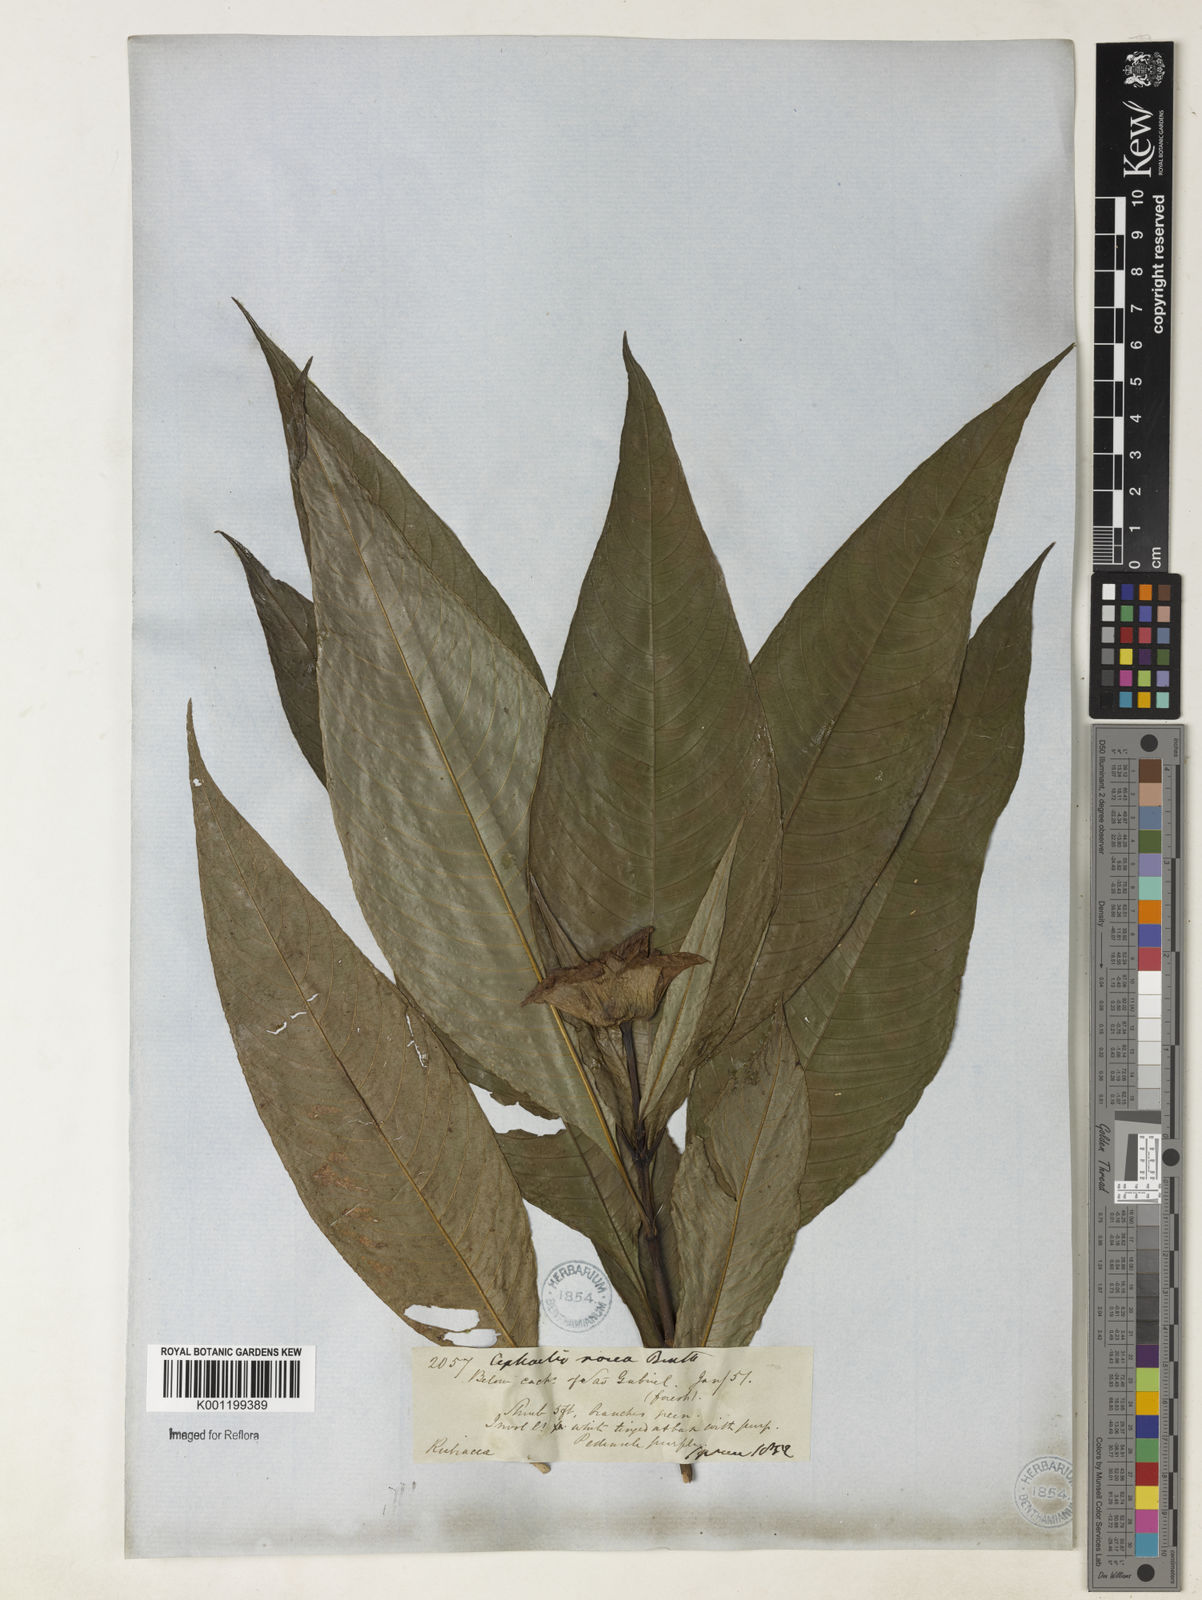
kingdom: Plantae
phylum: Tracheophyta
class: Magnoliopsida
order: Gentianales
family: Rubiaceae
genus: Psychotria
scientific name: Psychotria
